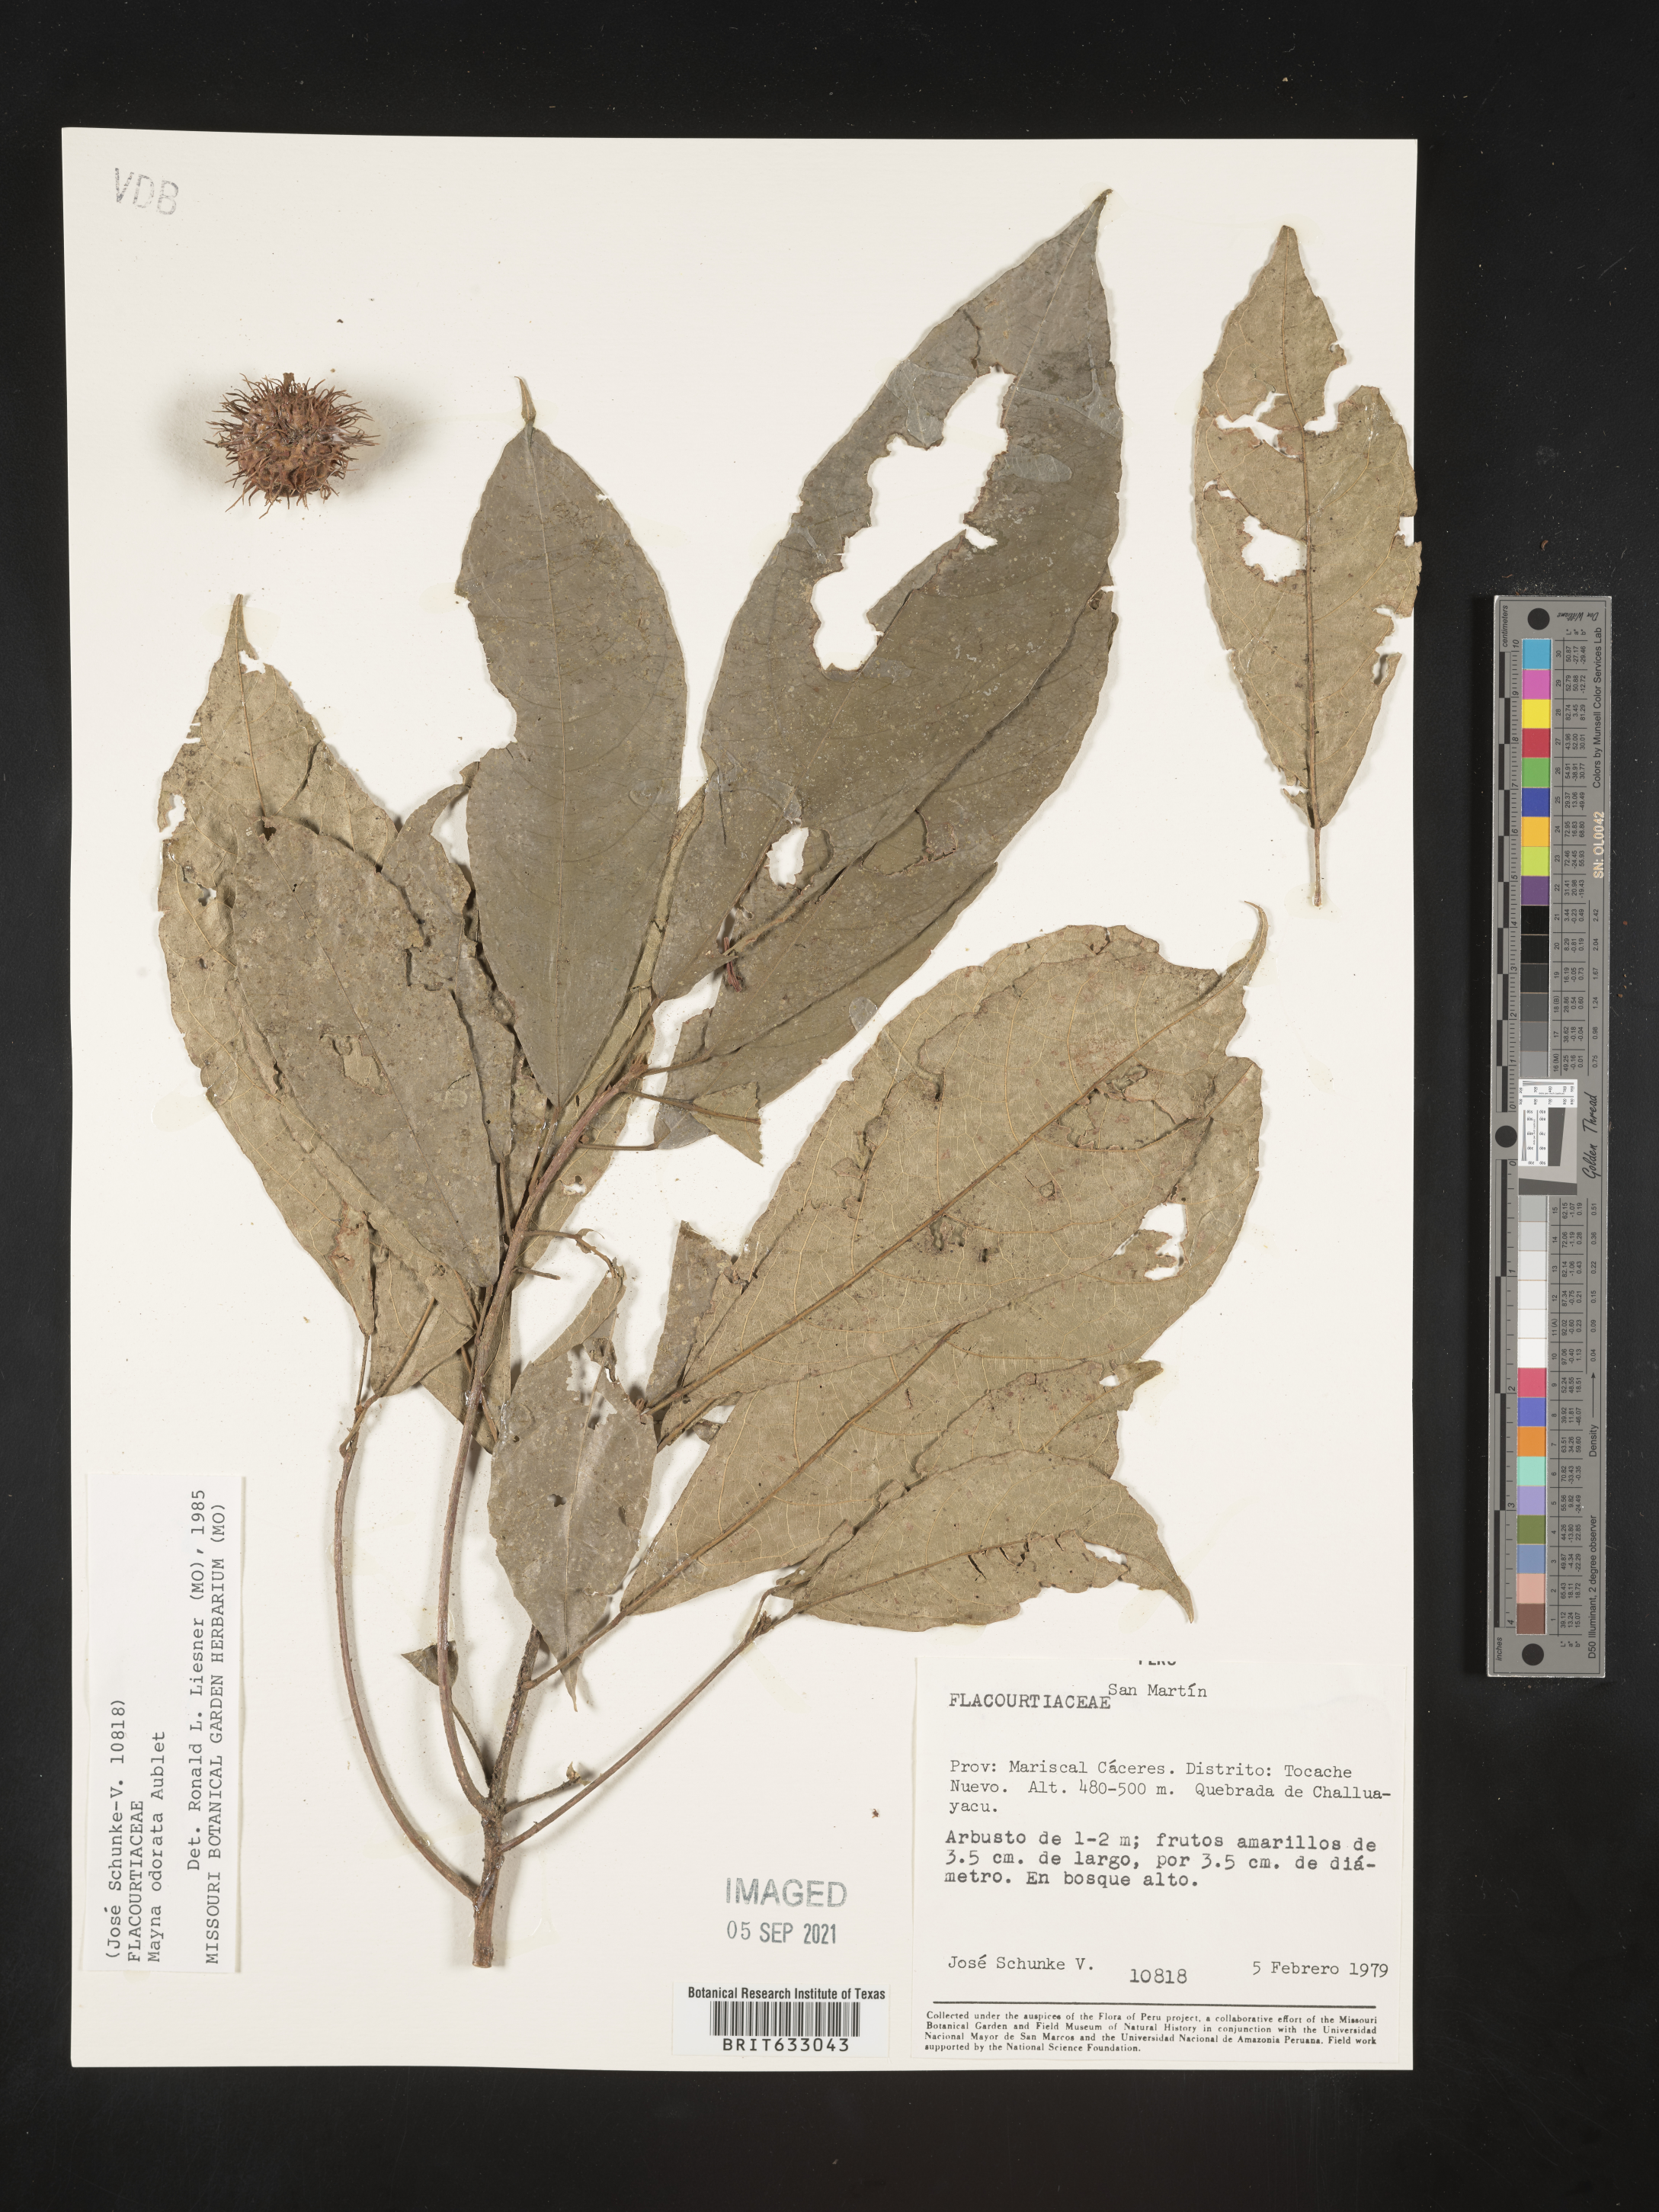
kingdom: Plantae
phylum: Tracheophyta
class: Magnoliopsida
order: Malpighiales
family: Achariaceae
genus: Mayna
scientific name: Mayna
